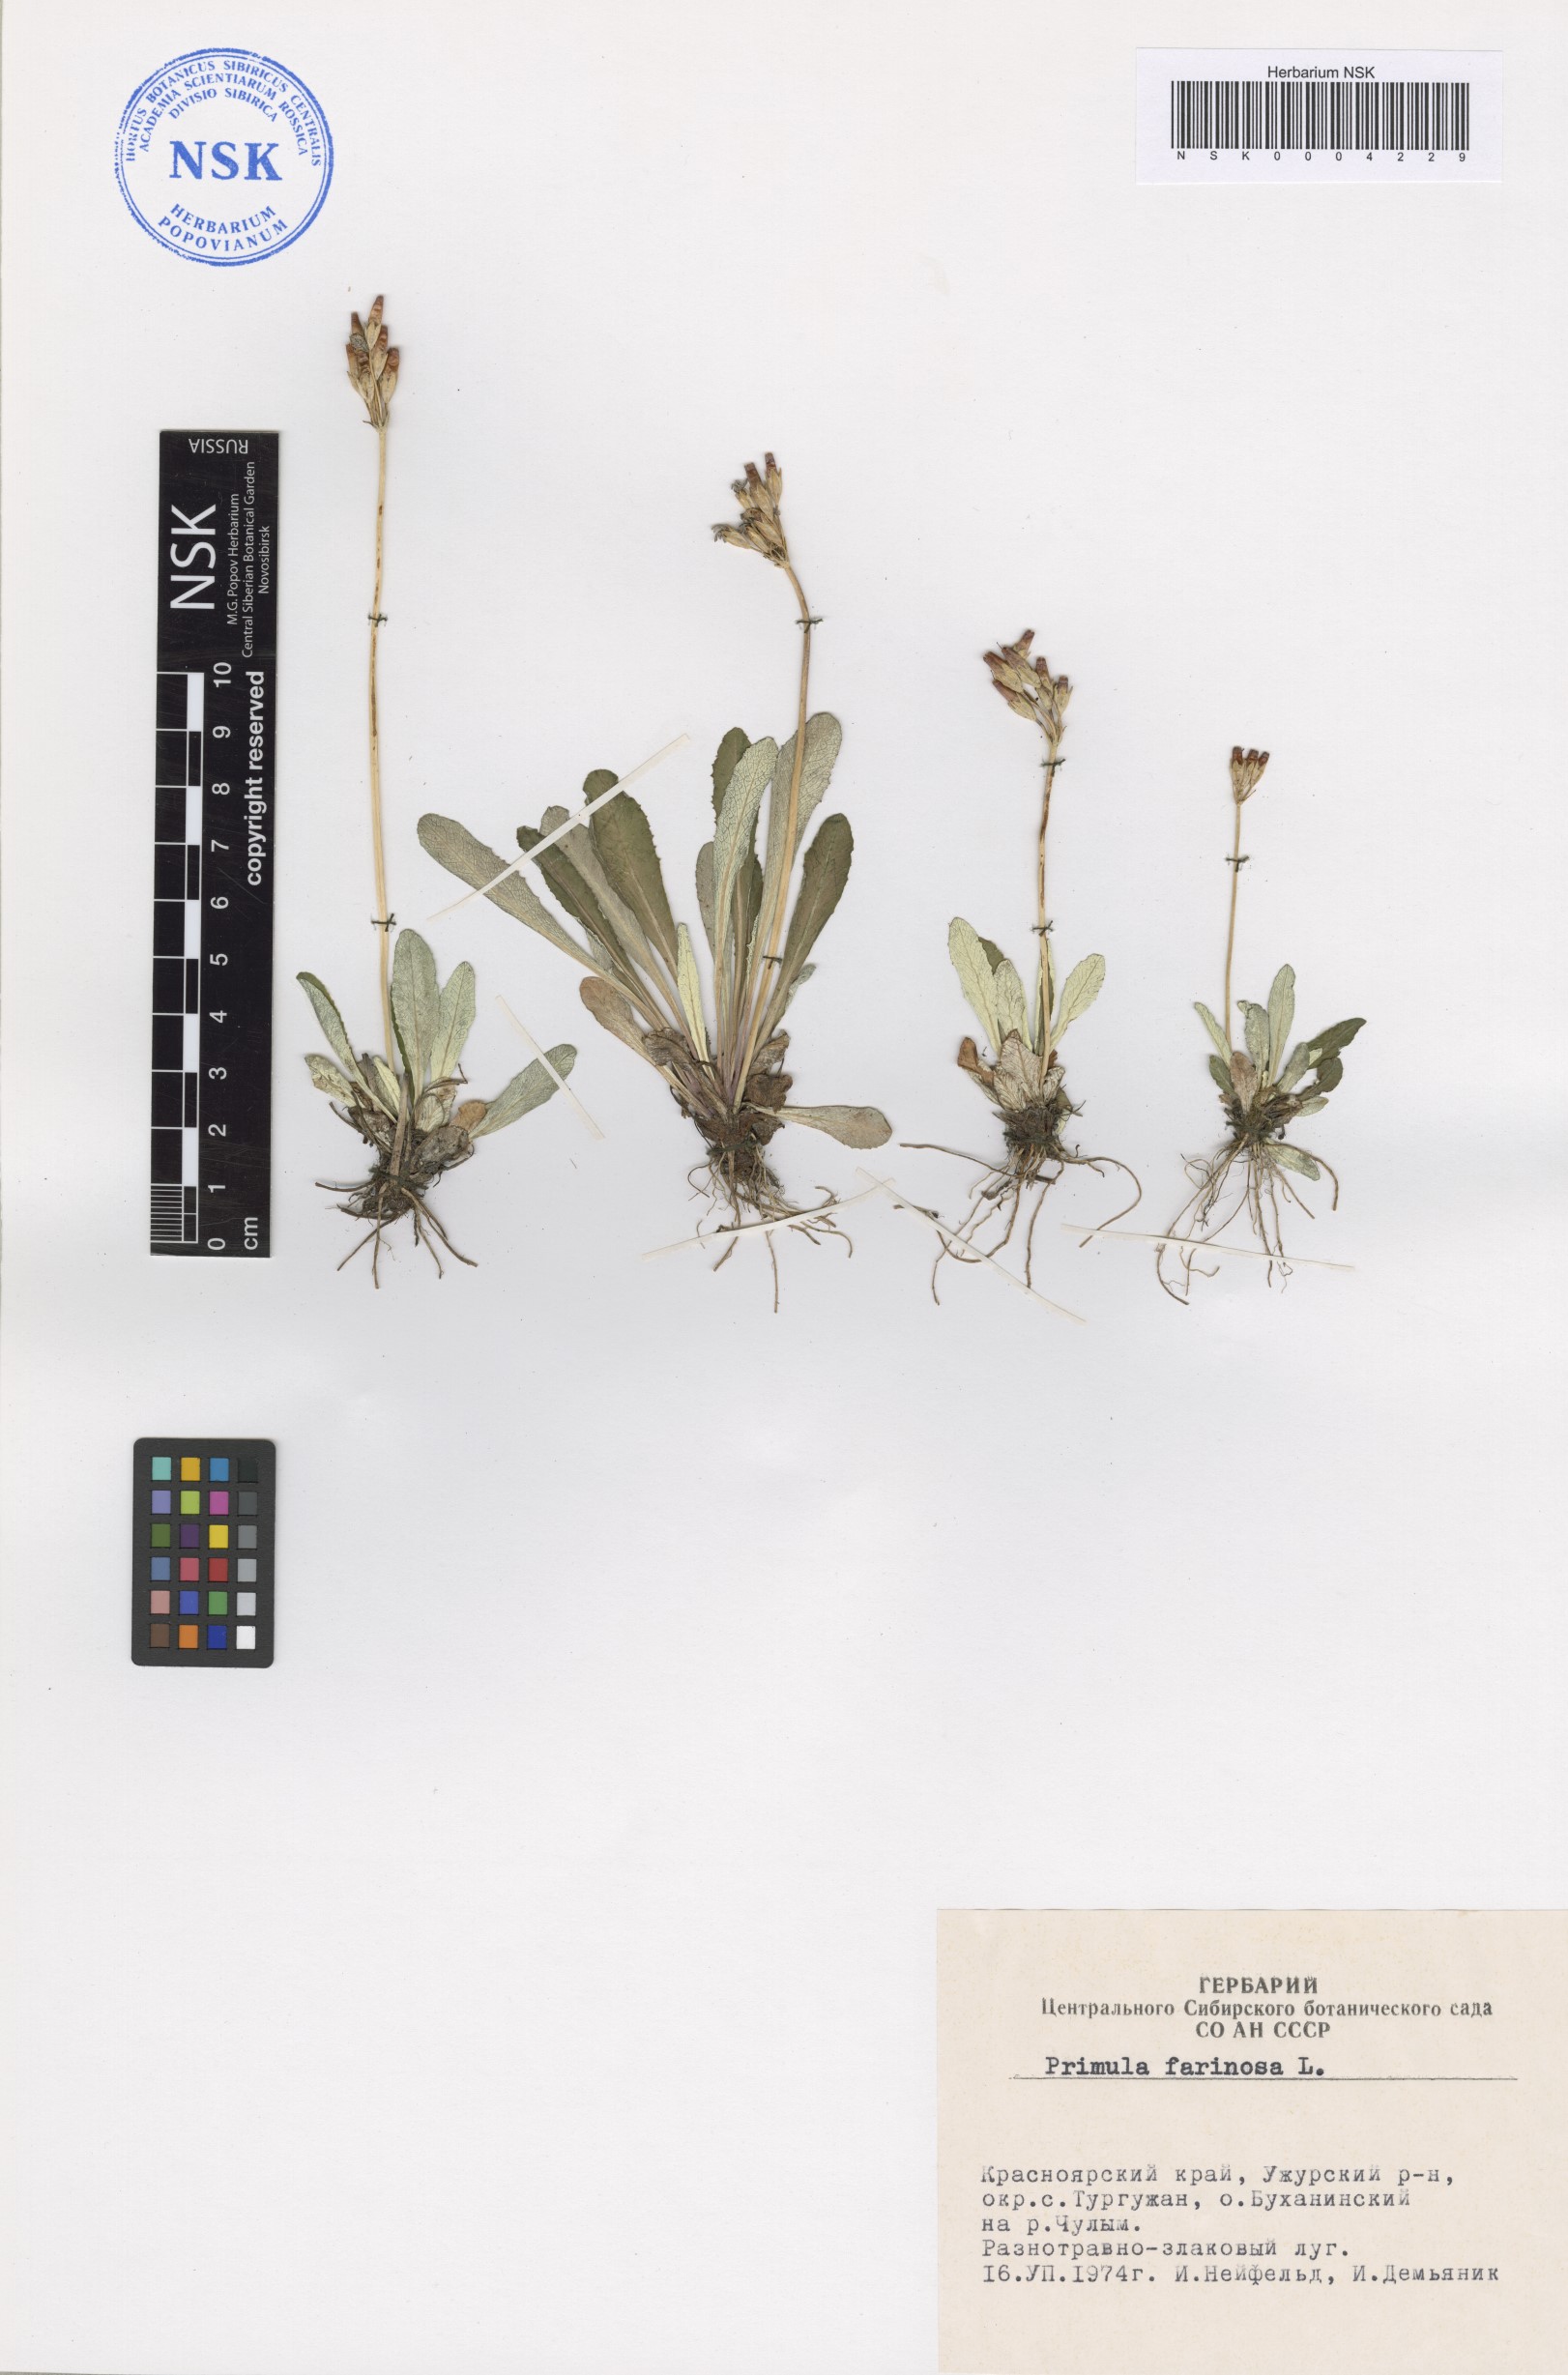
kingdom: Plantae
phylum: Tracheophyta
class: Magnoliopsida
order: Ericales
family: Primulaceae
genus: Primula
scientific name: Primula farinosa
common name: Bird's-eye primrose
